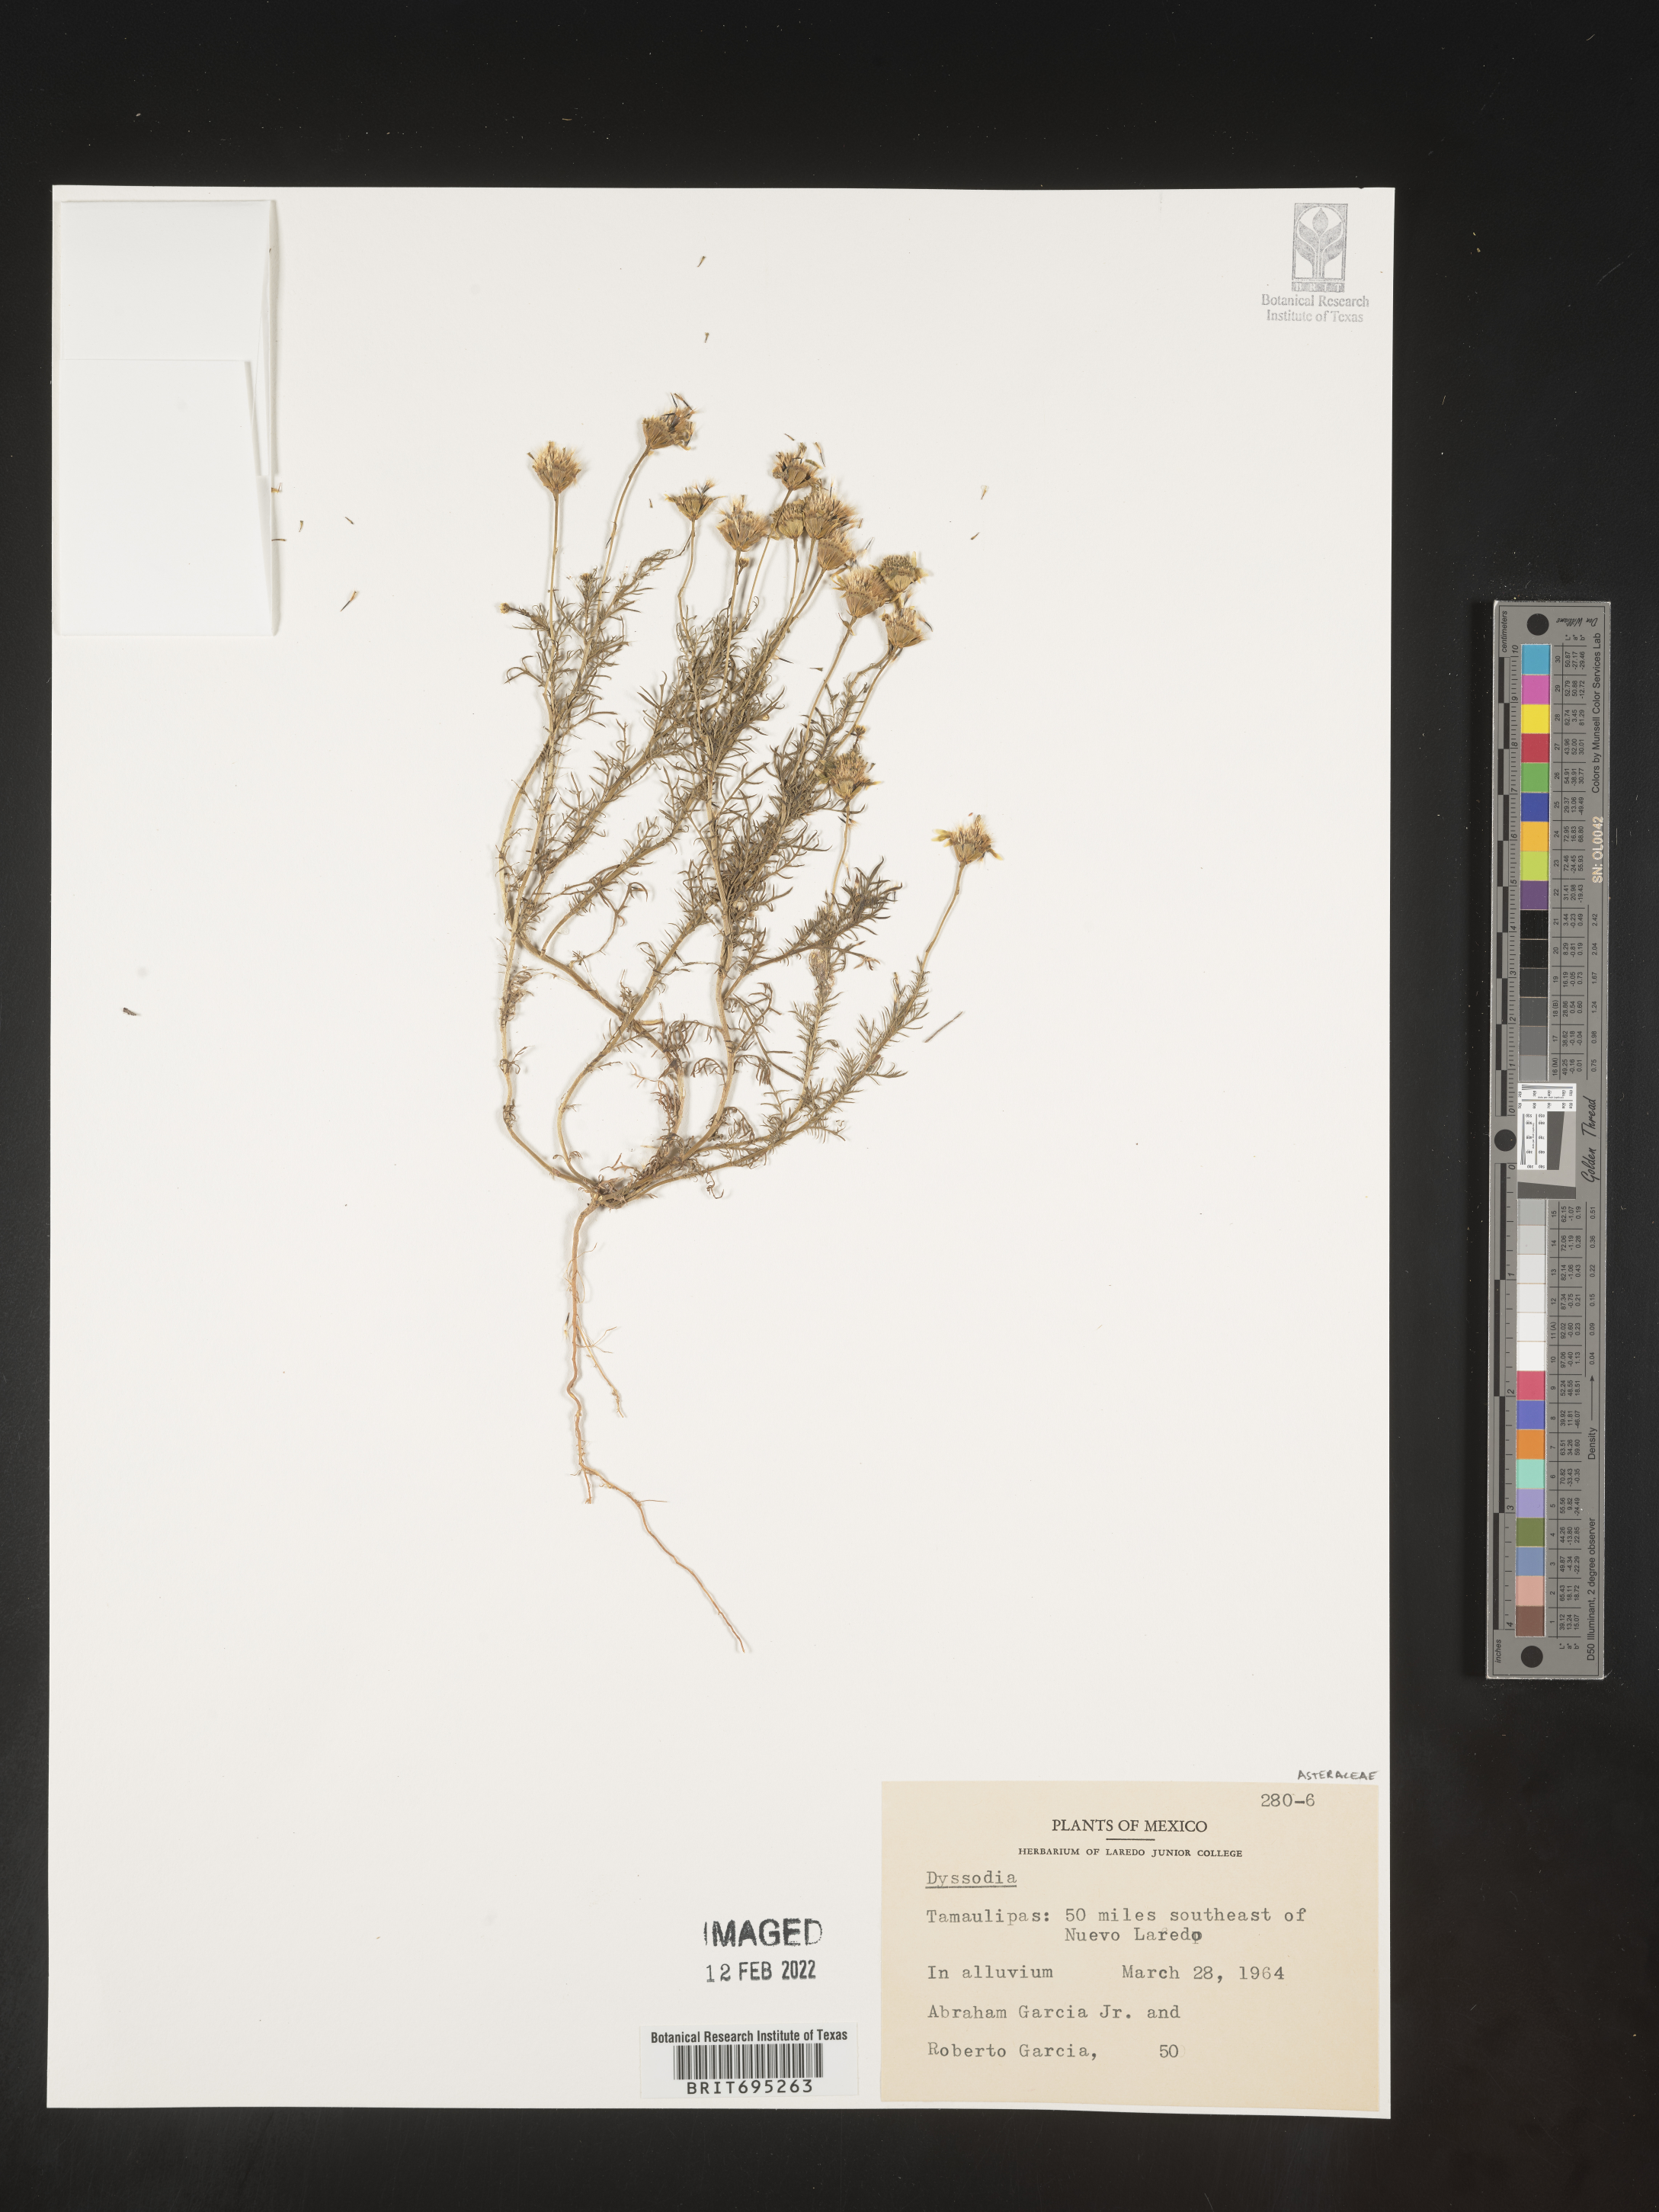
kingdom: Plantae
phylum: Tracheophyta
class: Magnoliopsida
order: Asterales
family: Asteraceae
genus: Dyssodia
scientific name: Dyssodia
